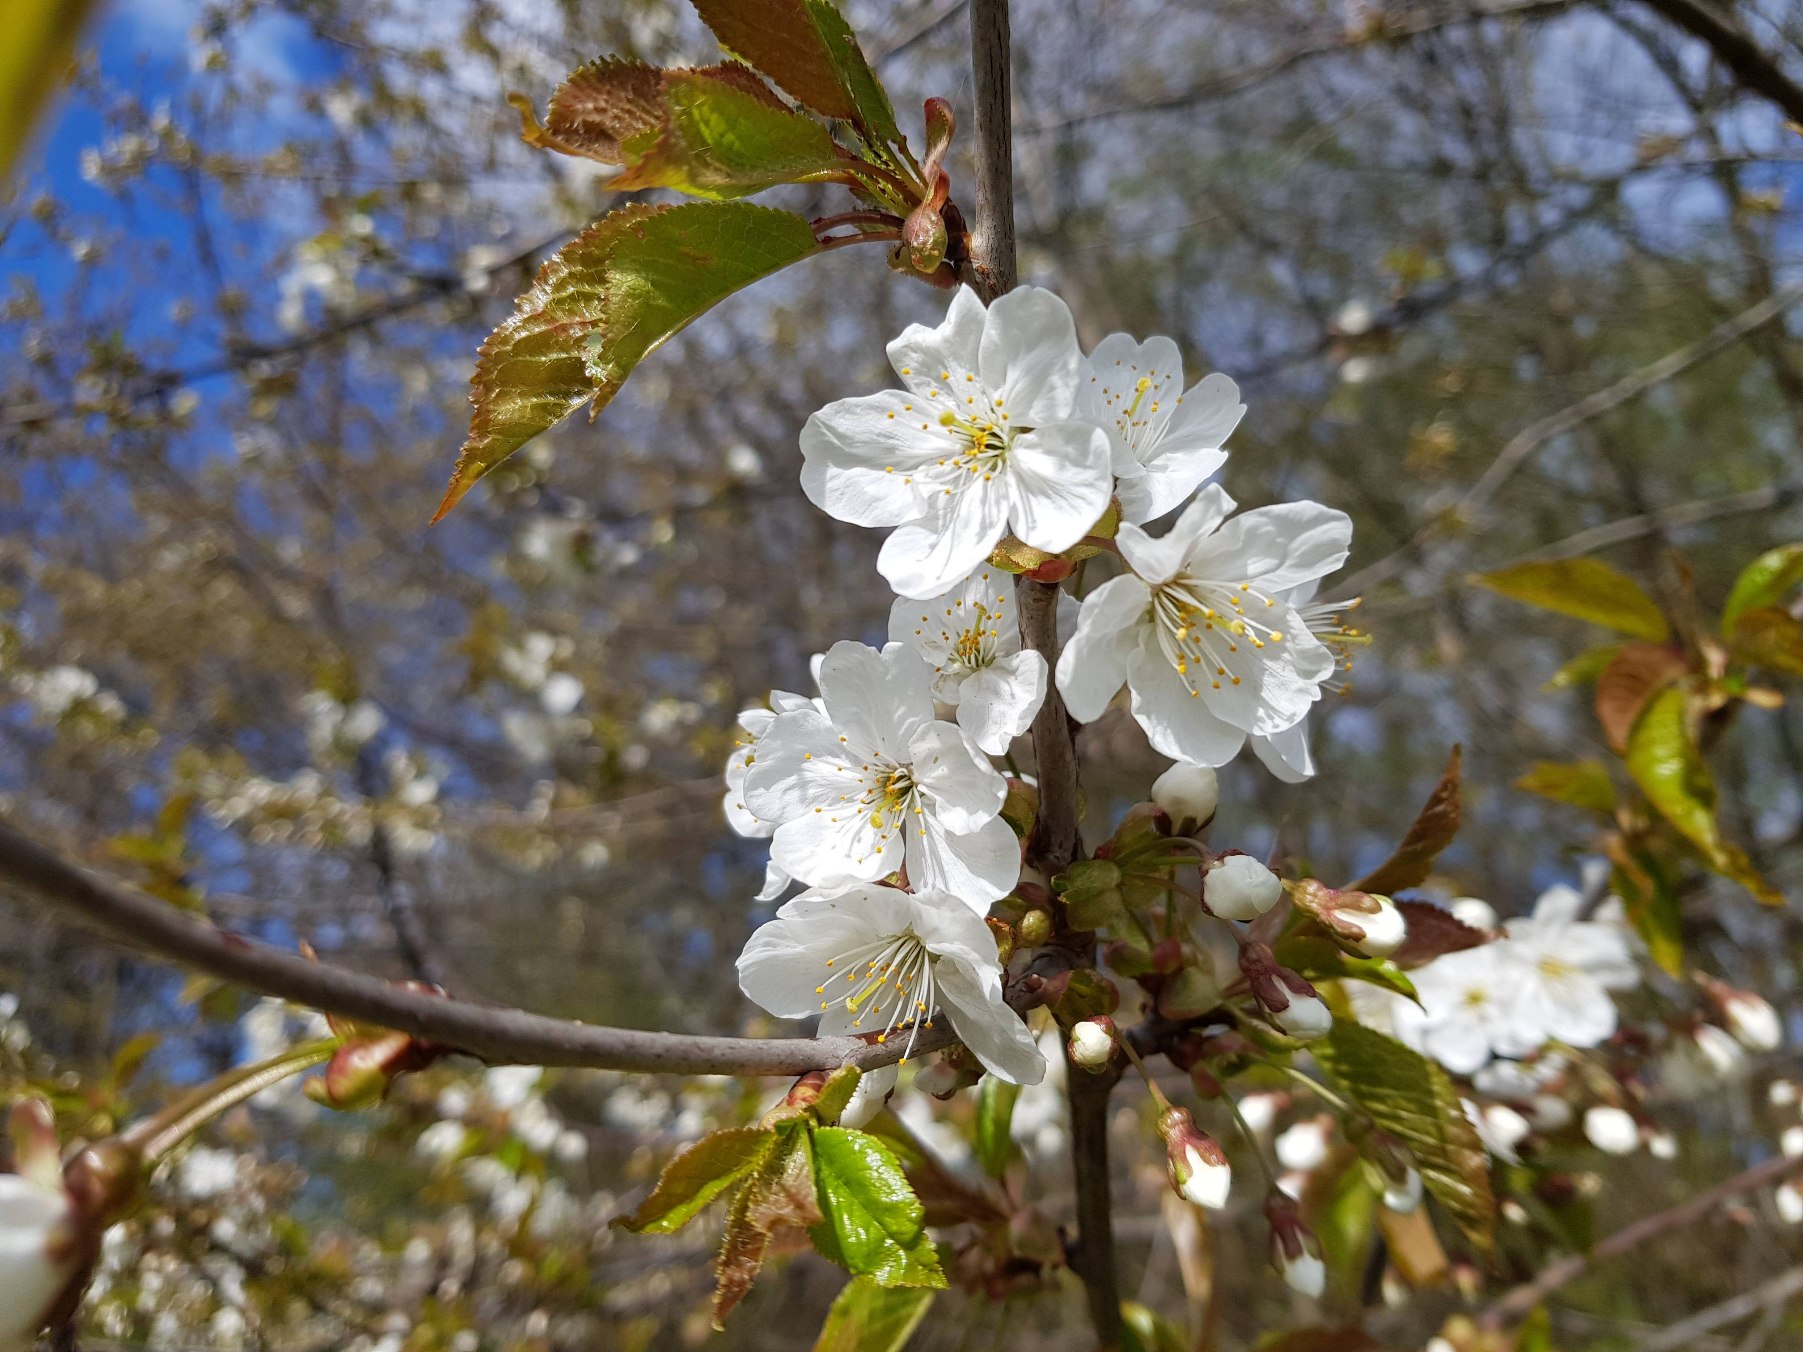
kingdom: Plantae
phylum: Tracheophyta
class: Magnoliopsida
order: Rosales
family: Rosaceae
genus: Prunus
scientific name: Prunus avium
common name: Fugle-kirsebær
